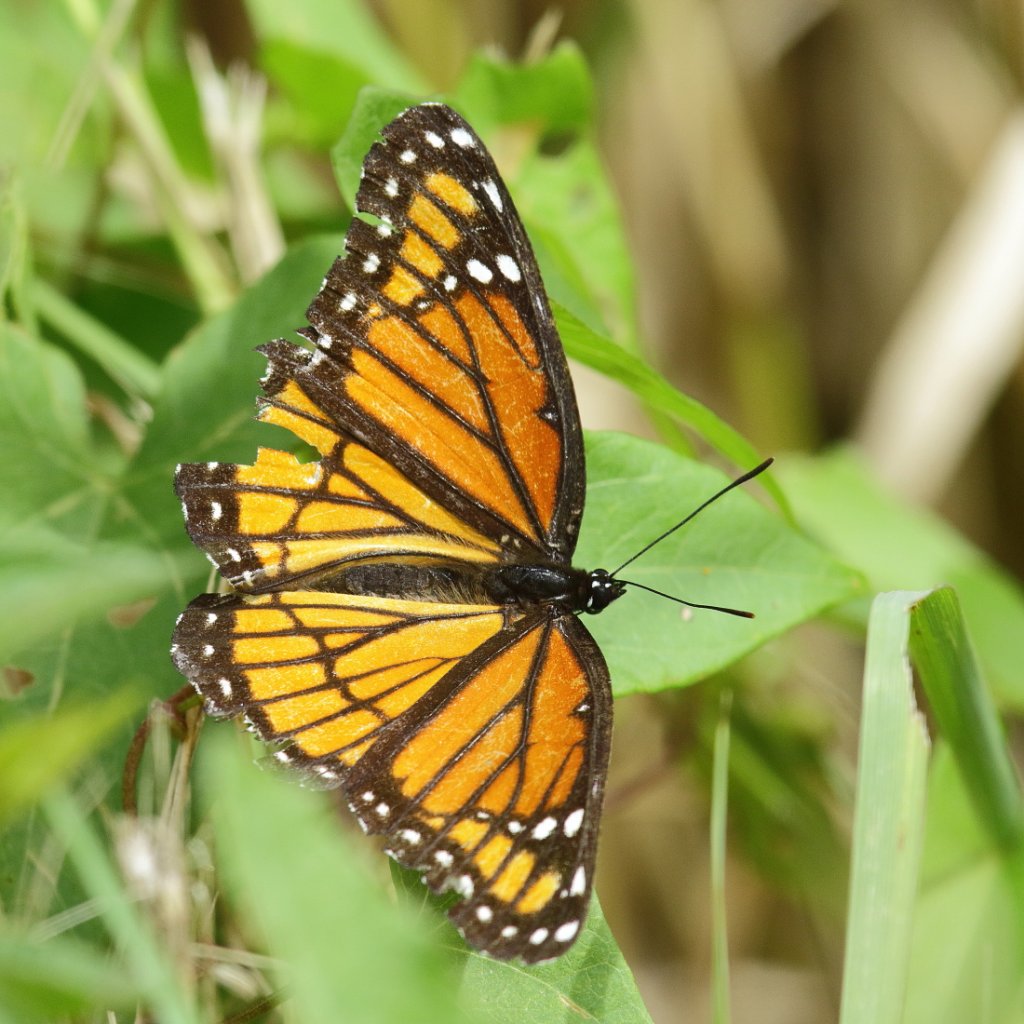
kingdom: Animalia
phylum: Arthropoda
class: Insecta
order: Lepidoptera
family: Nymphalidae
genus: Limenitis
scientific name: Limenitis archippus
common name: Viceroy
